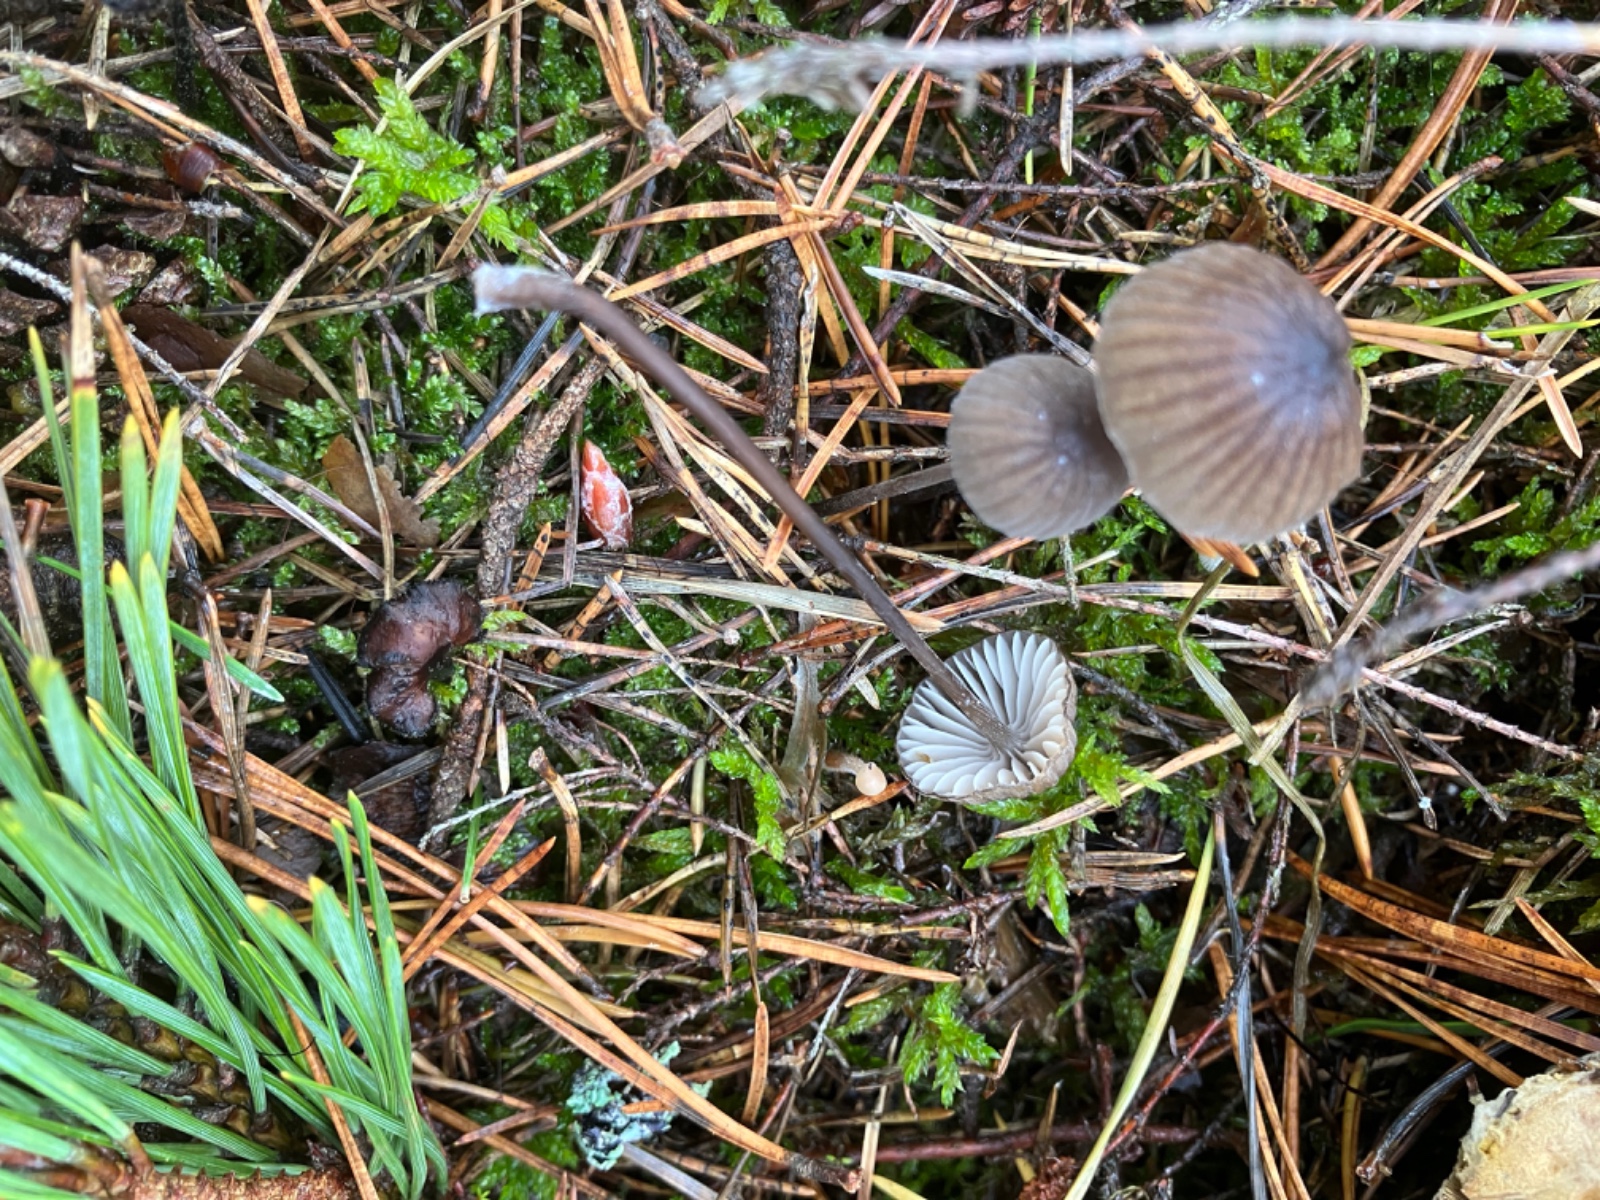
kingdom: Fungi
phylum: Basidiomycota
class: Agaricomycetes
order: Agaricales
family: Mycenaceae
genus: Mycena
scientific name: Mycena galopus
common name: hvidmælket huesvamp
